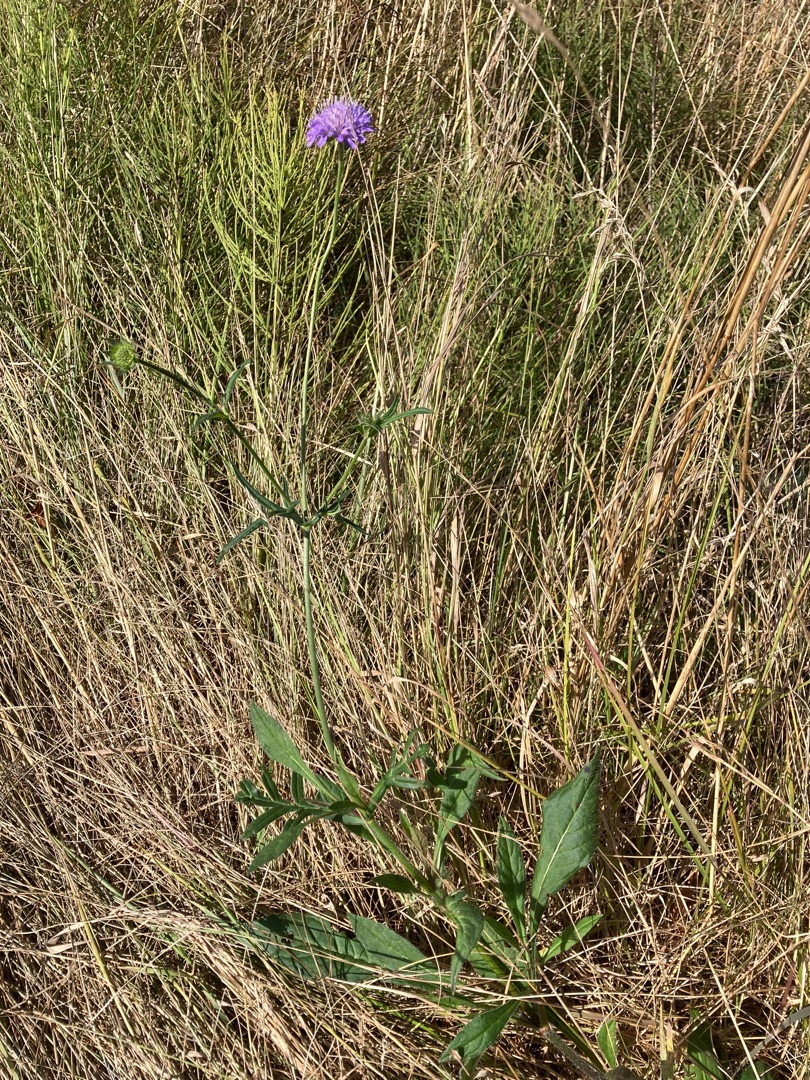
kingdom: Plantae
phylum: Tracheophyta
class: Magnoliopsida
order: Dipsacales
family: Caprifoliaceae
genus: Knautia
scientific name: Knautia arvensis
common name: Blåhat
